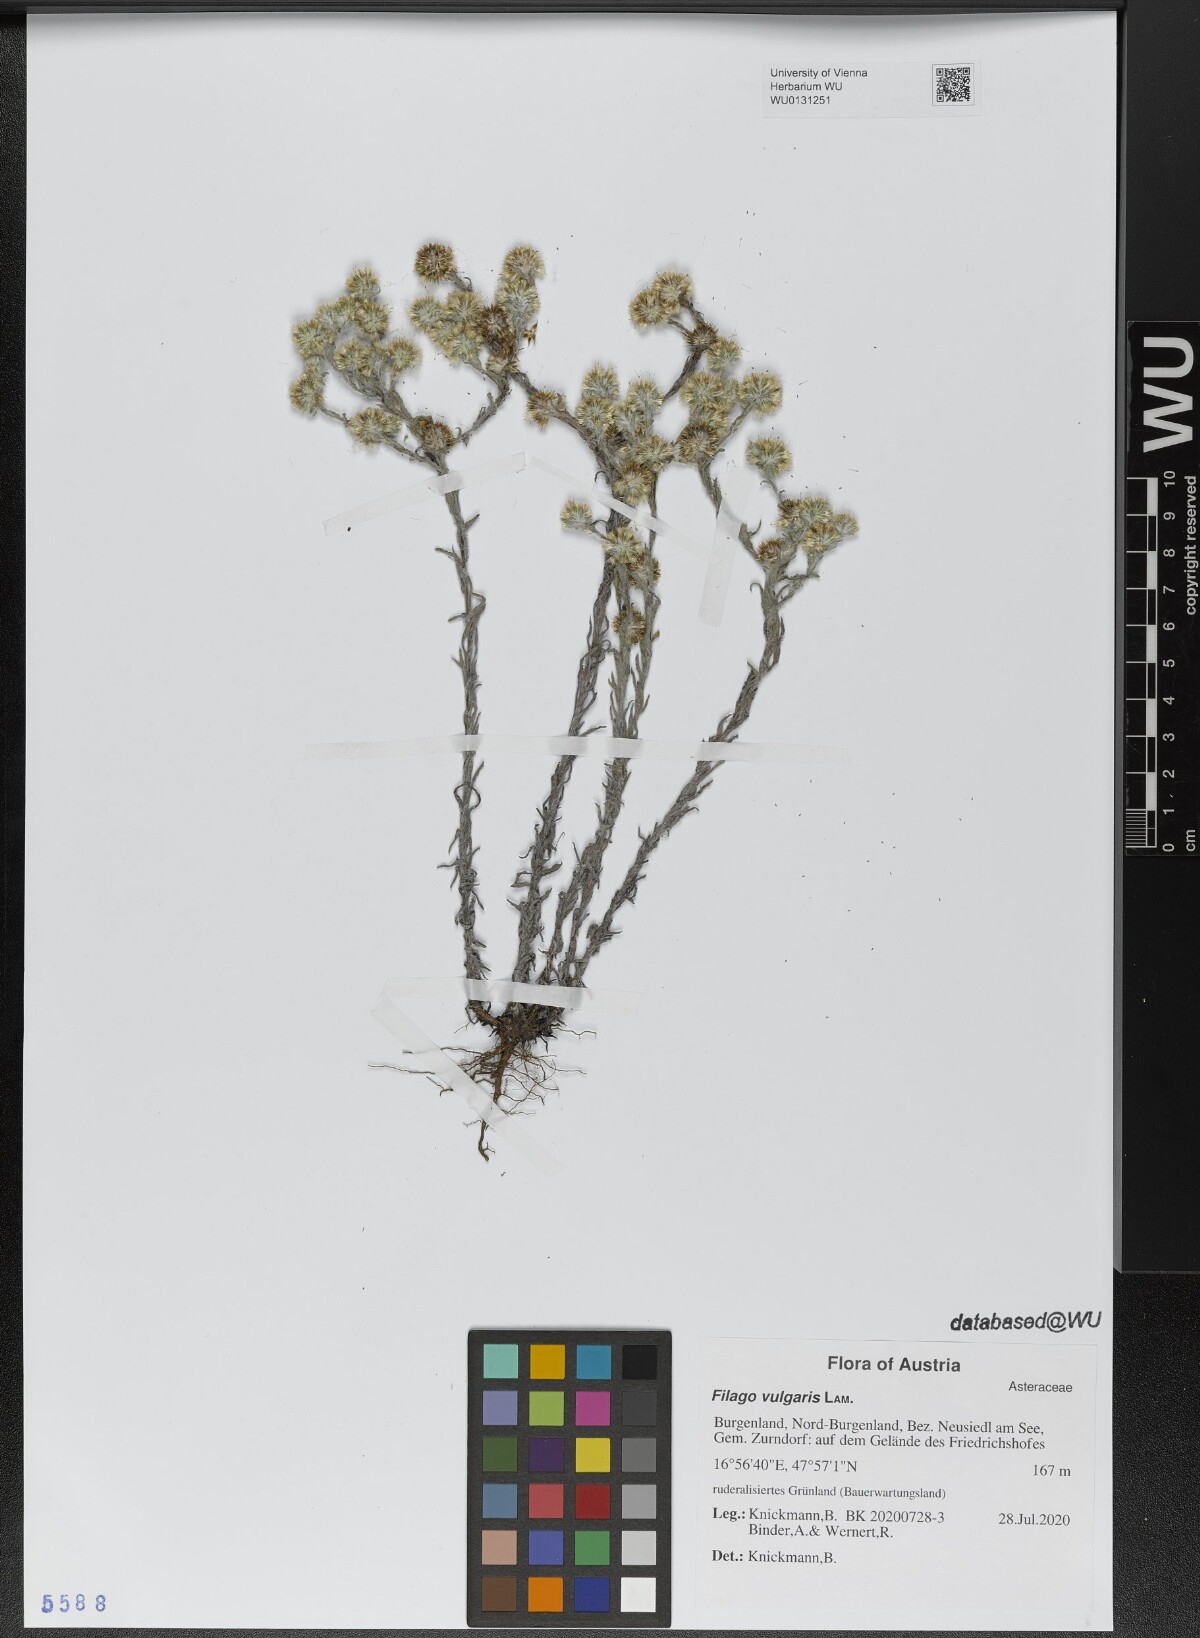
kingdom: Plantae
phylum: Tracheophyta
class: Magnoliopsida
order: Asterales
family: Asteraceae
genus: Filago
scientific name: Filago germanica
